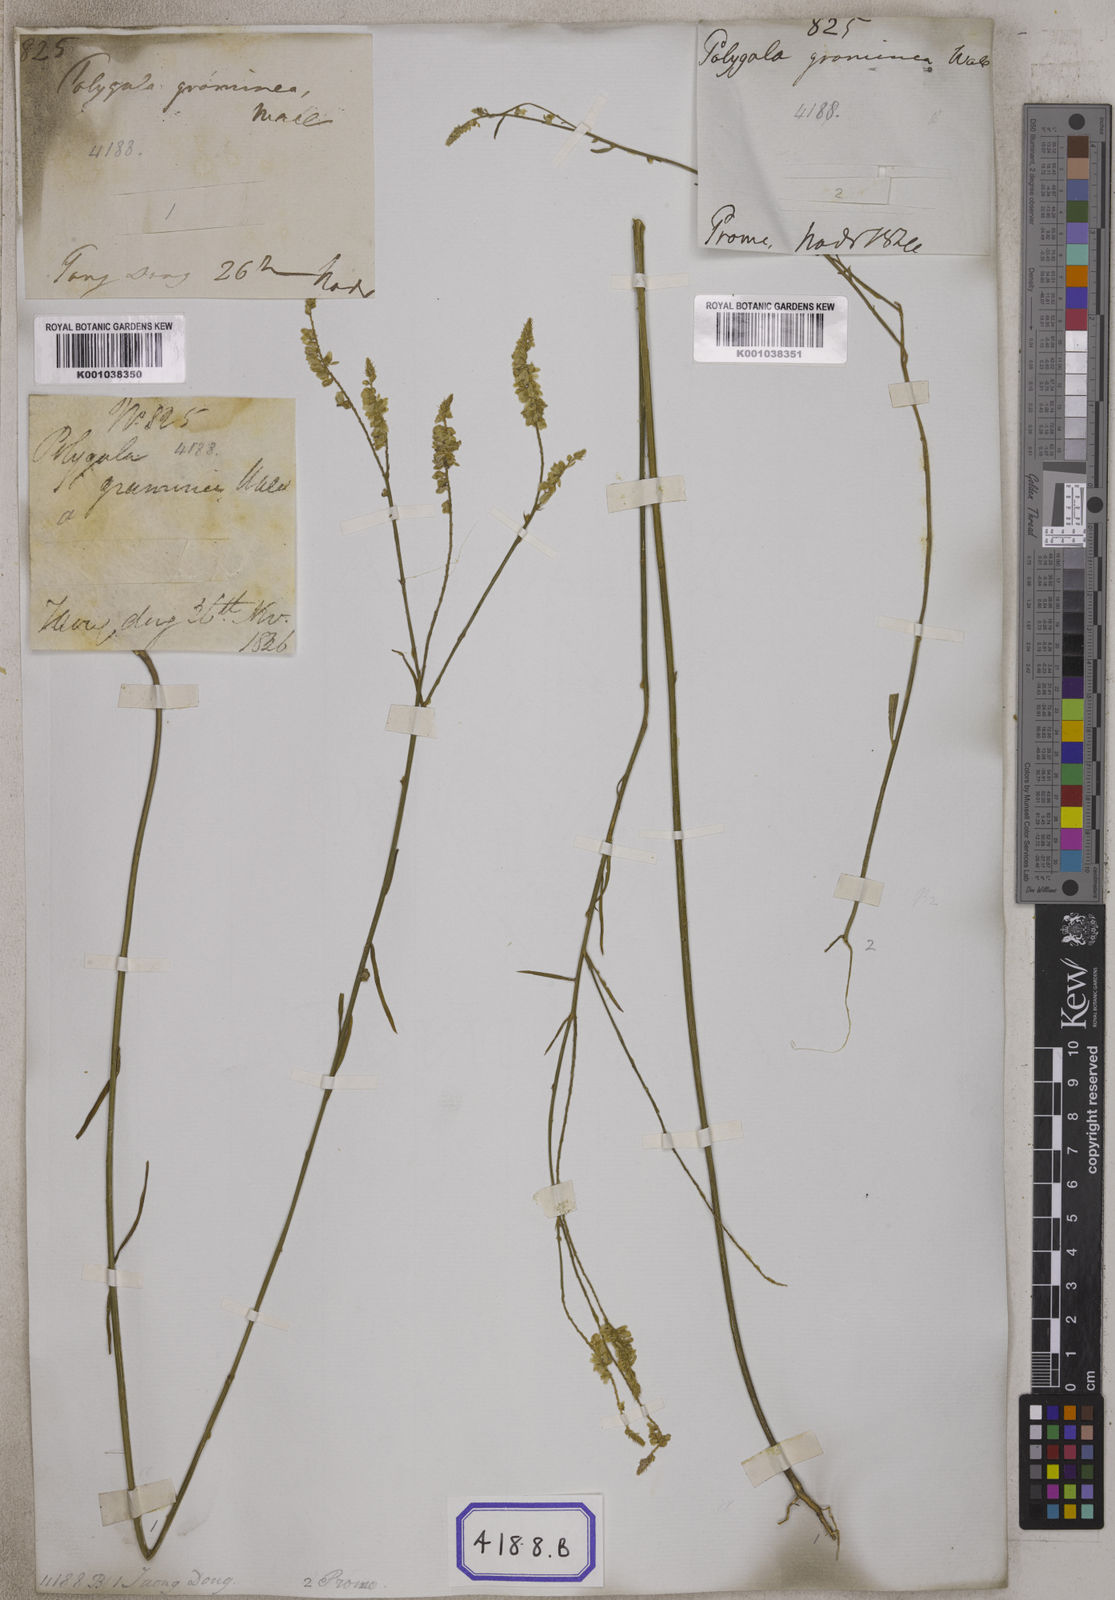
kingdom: Plantae
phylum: Tracheophyta
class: Magnoliopsida
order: Fabales
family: Polygalaceae
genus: Polygala
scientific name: Polygala longifolia
